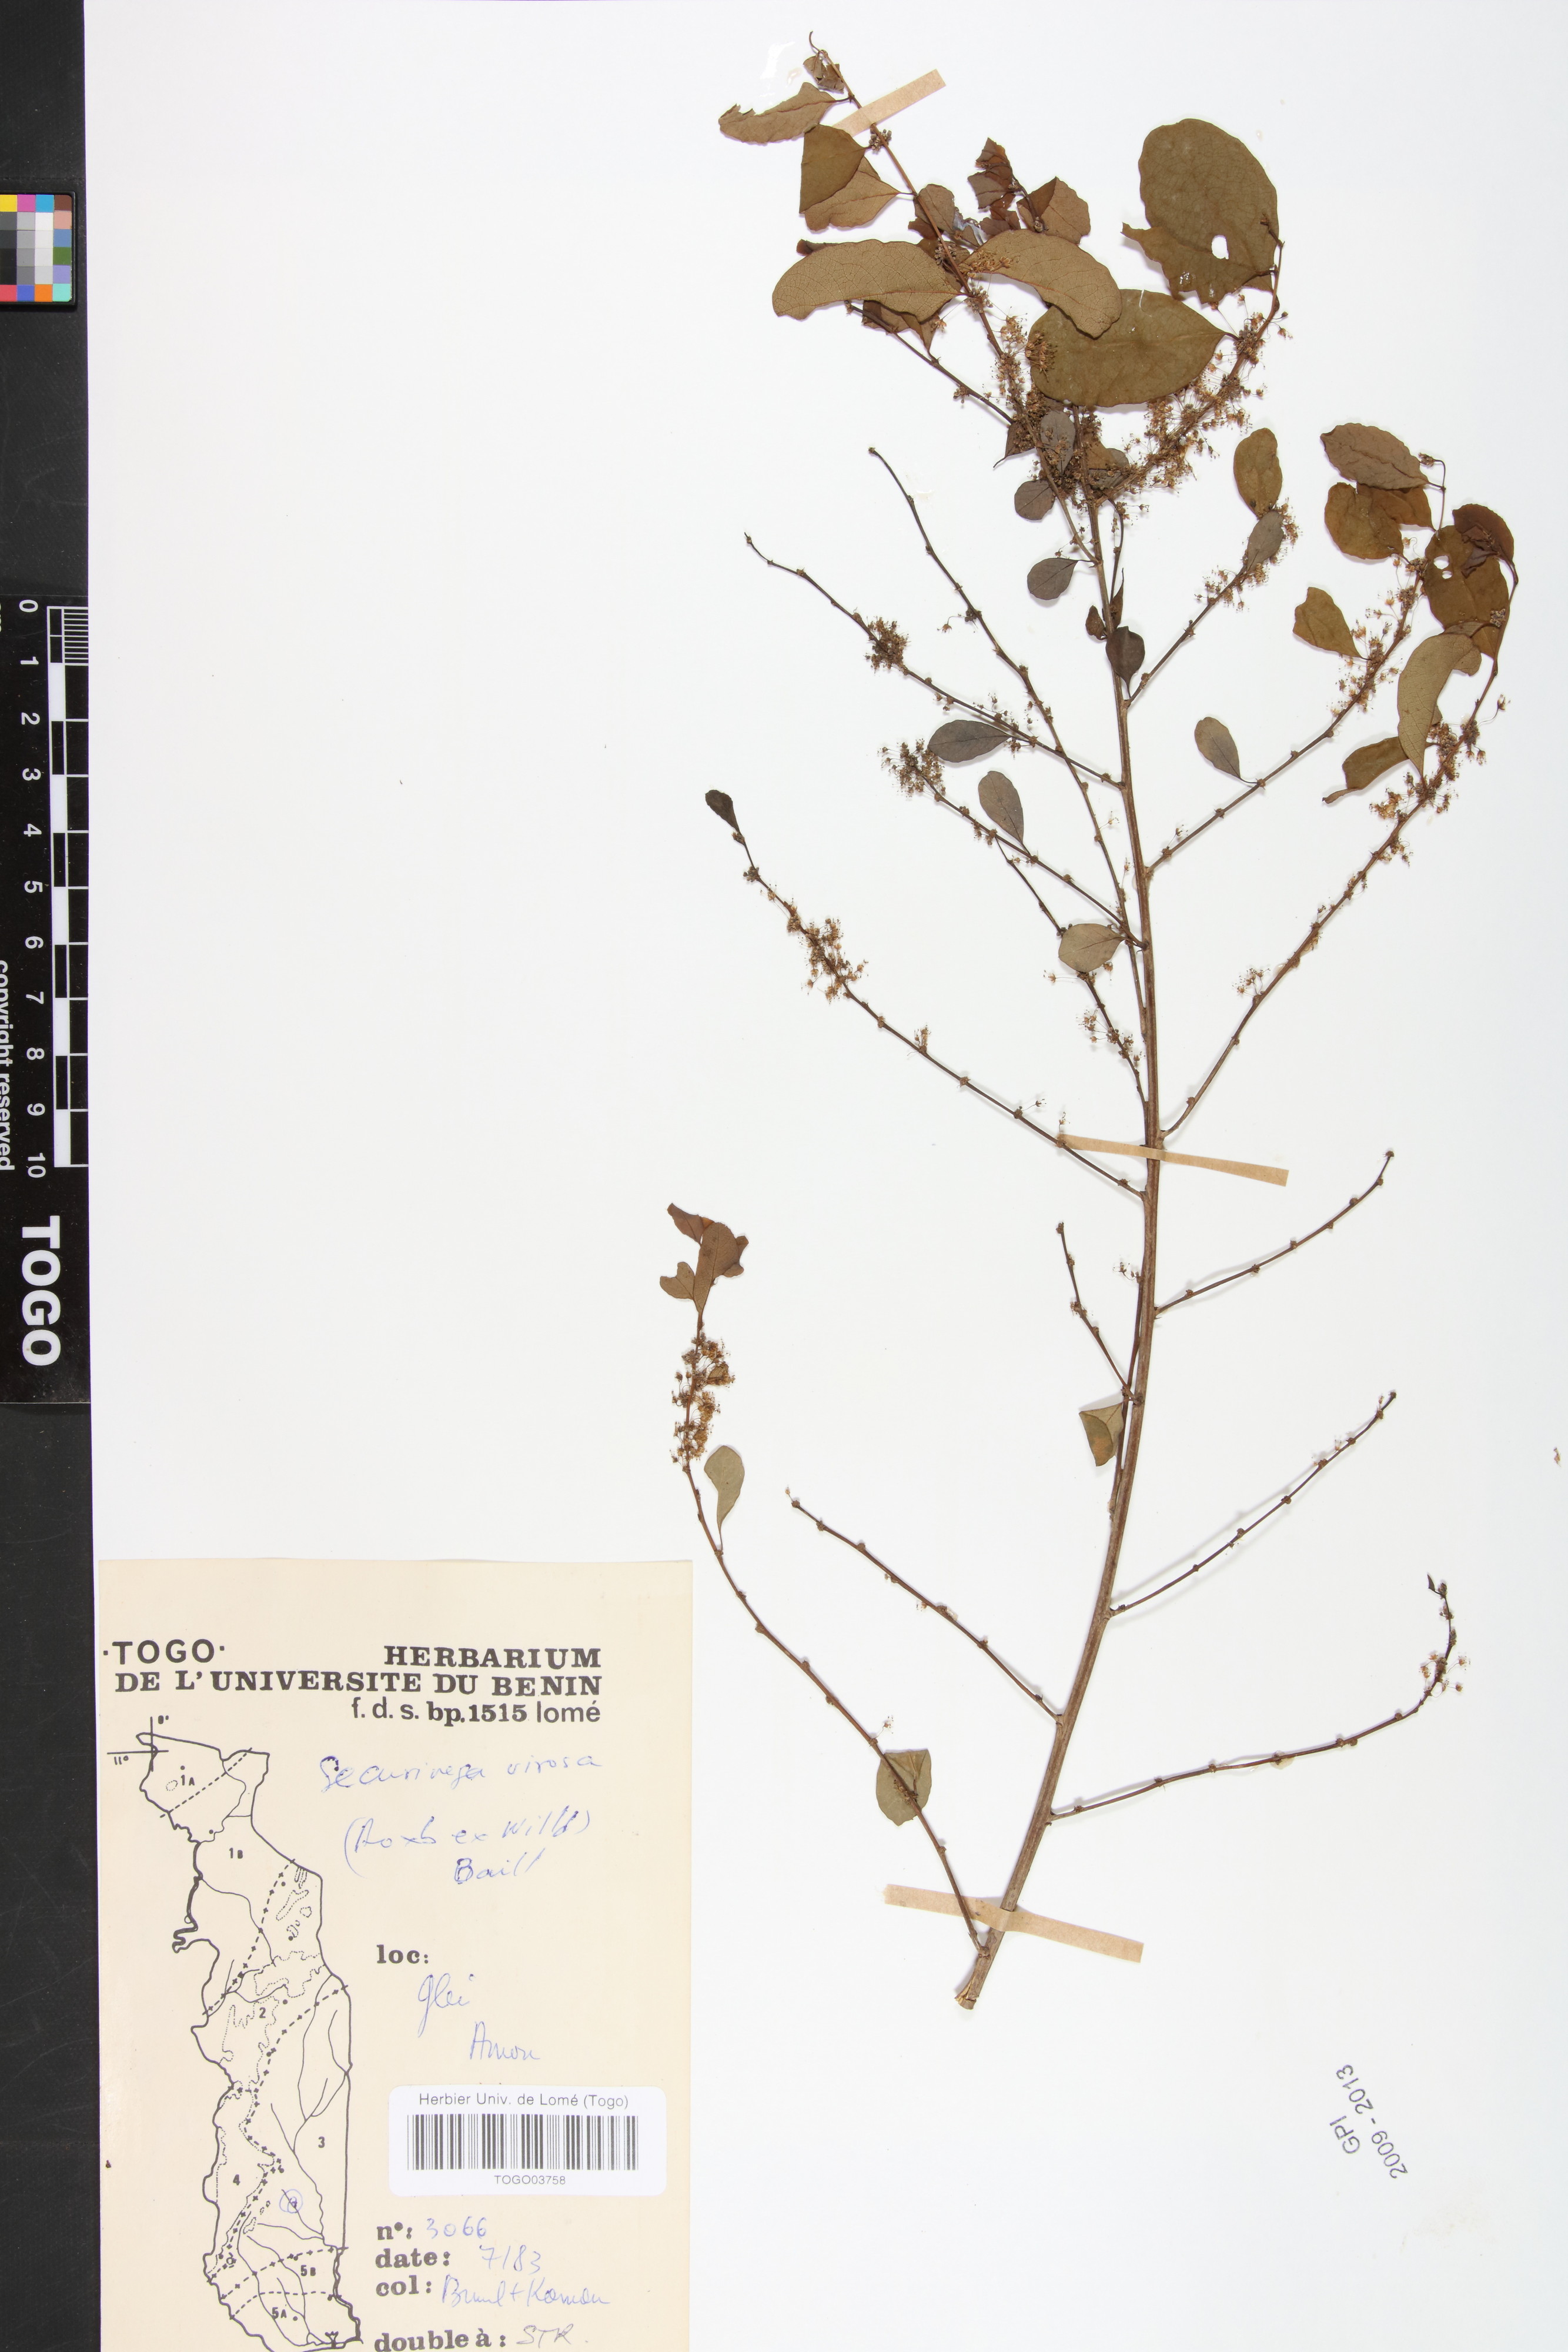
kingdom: Plantae
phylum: Tracheophyta
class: Magnoliopsida
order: Malpighiales
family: Phyllanthaceae
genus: Flueggea
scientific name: Flueggea virosa
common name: Common bushweed
